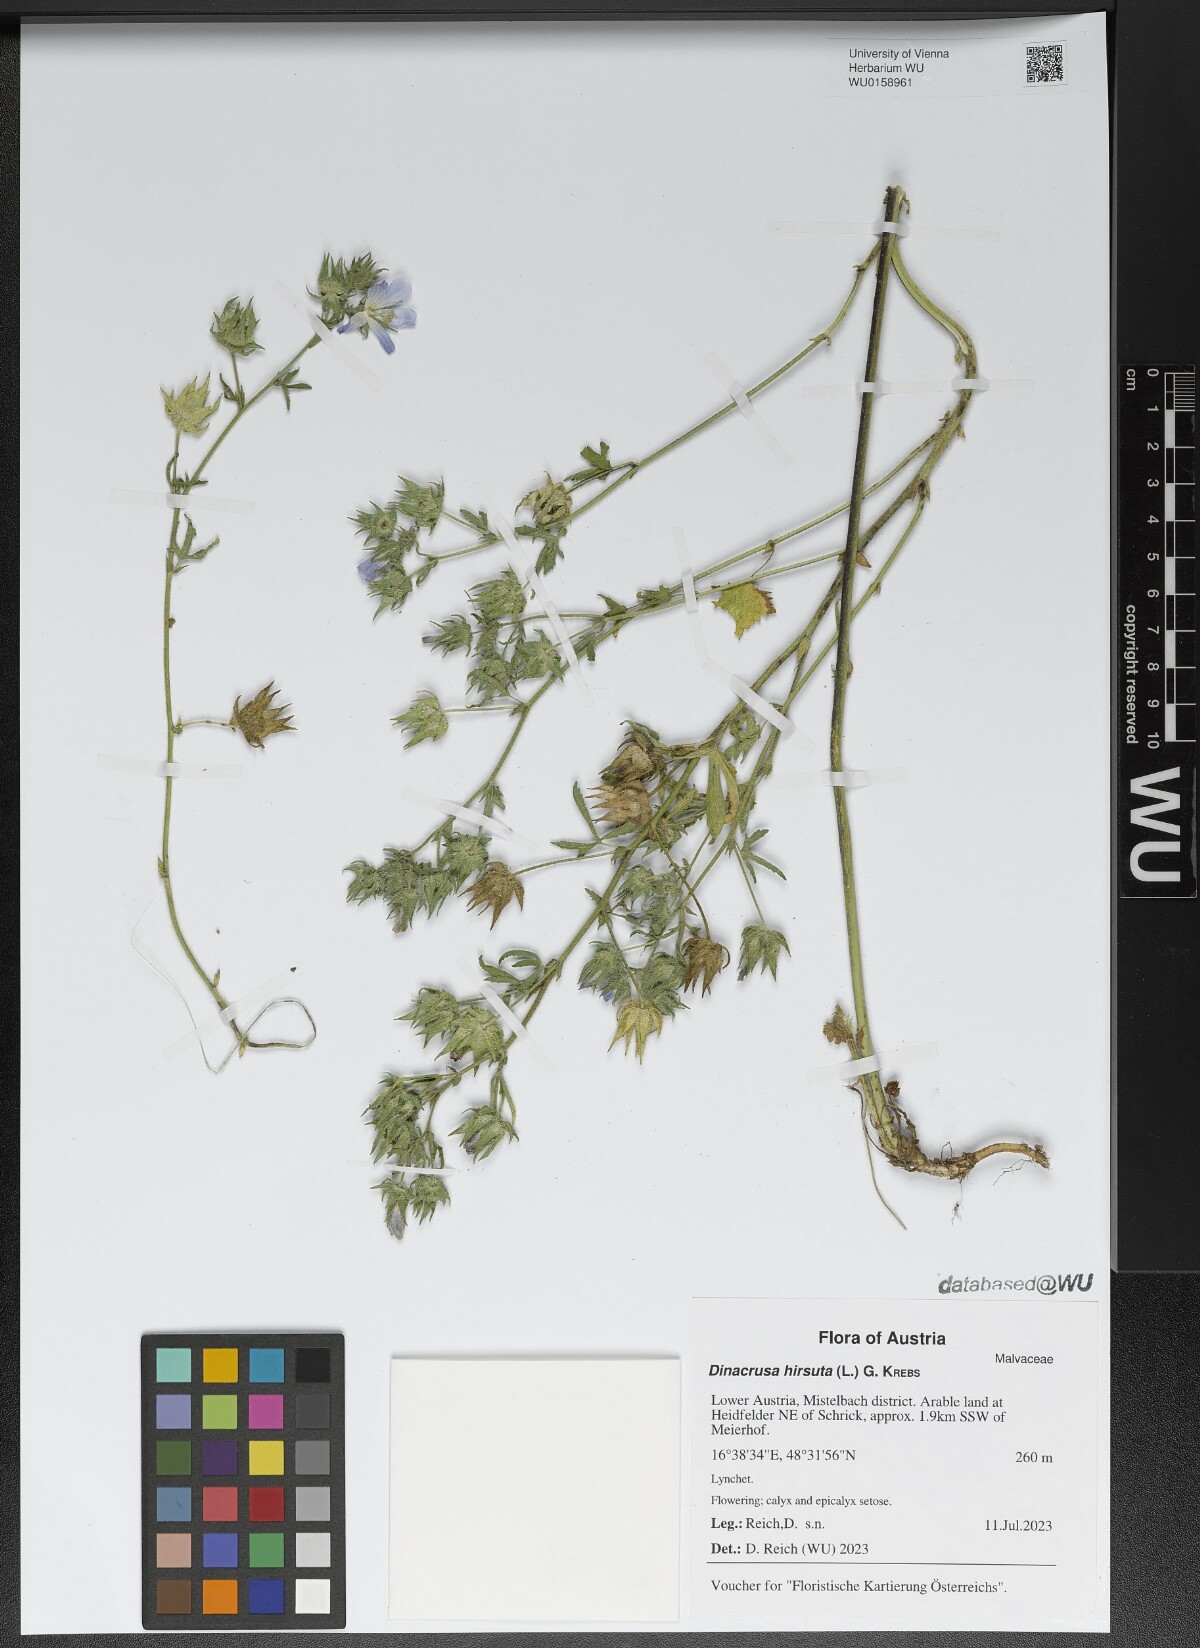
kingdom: Plantae
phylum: Tracheophyta
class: Magnoliopsida
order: Malvales
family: Malvaceae
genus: Althaea
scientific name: Althaea hirsuta
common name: Rough marsh-mallow
